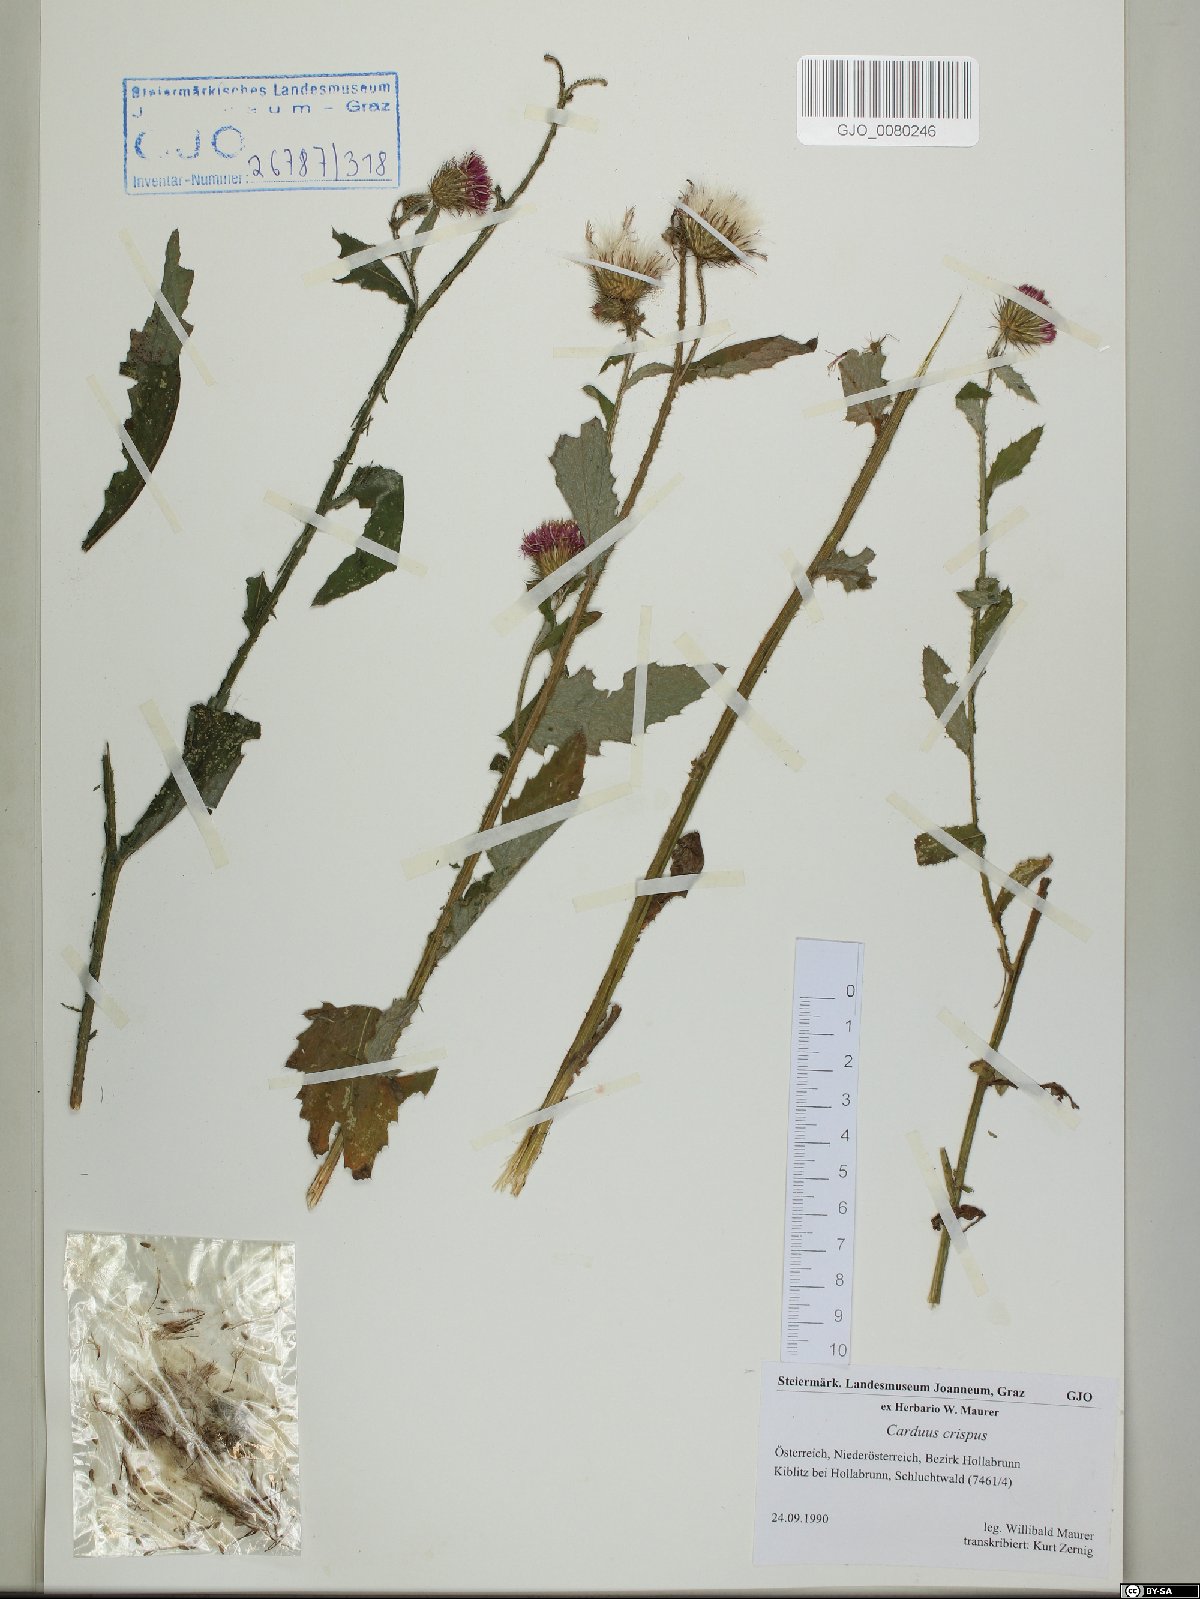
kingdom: Plantae
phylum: Tracheophyta
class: Magnoliopsida
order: Asterales
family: Asteraceae
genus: Carduus
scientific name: Carduus crispus
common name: Welted thistle
